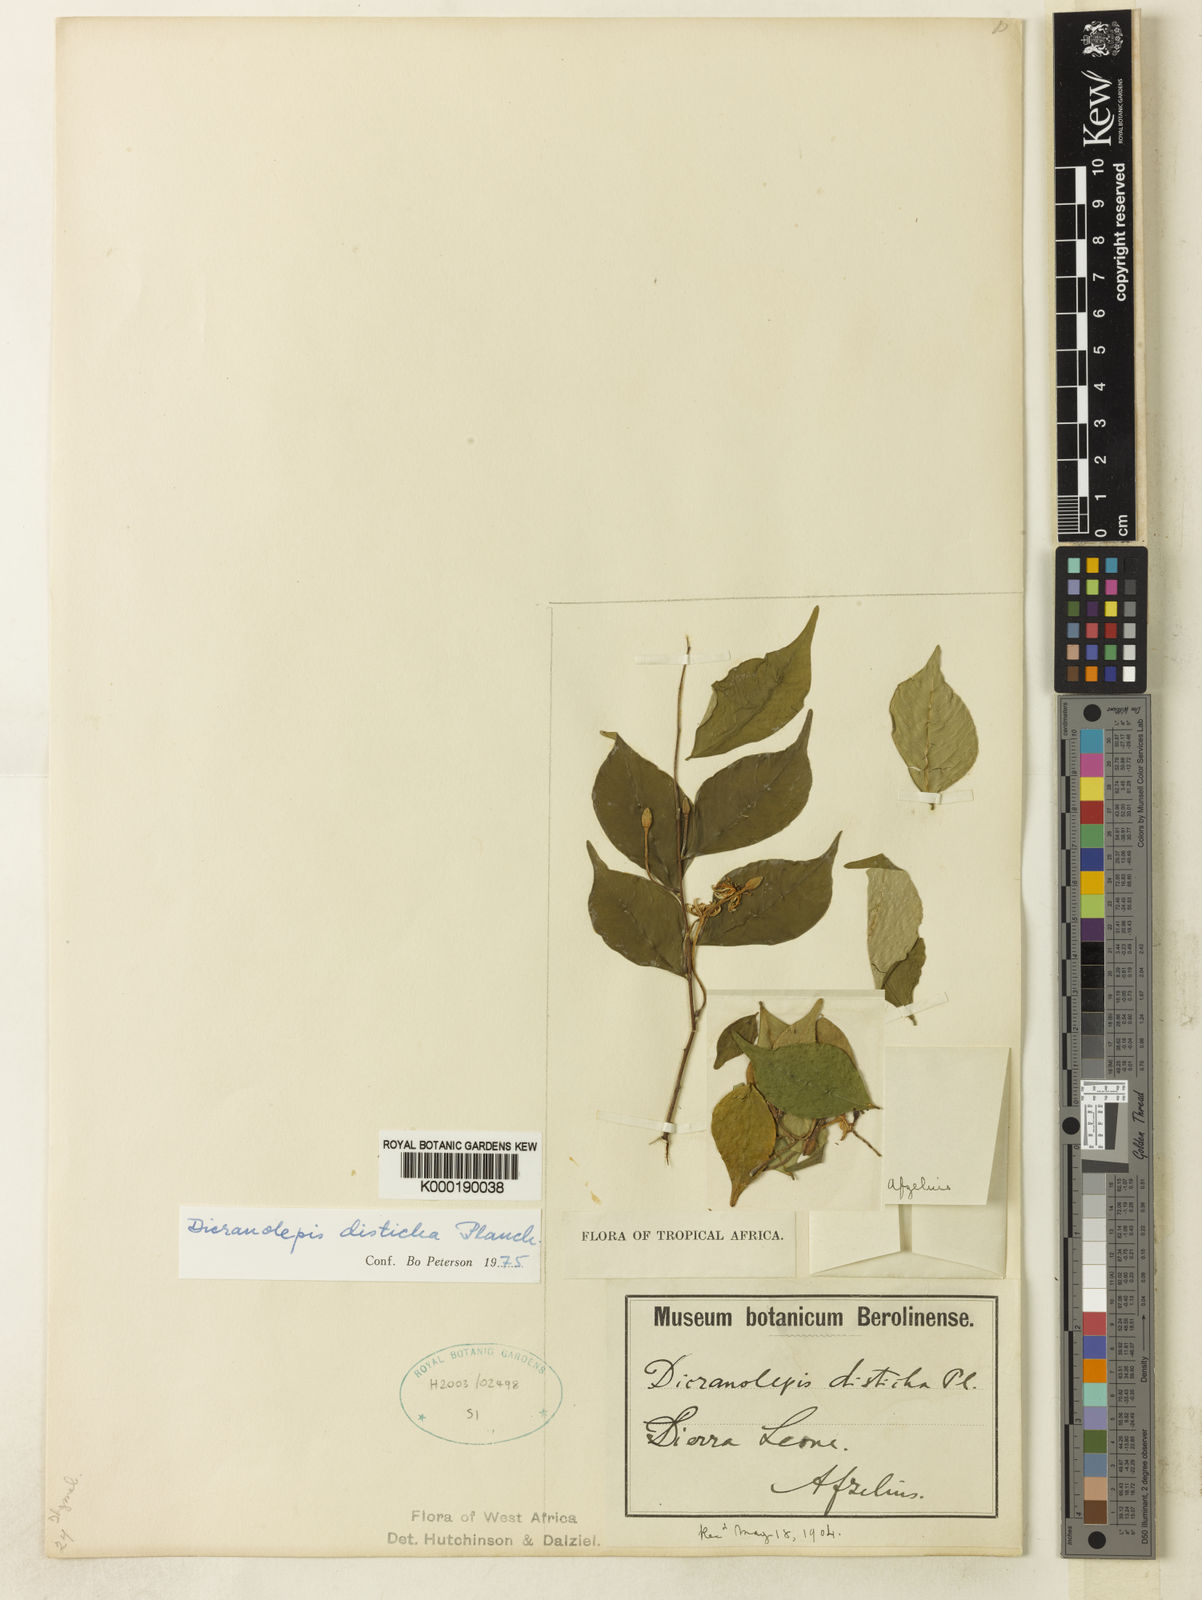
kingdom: Plantae
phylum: Tracheophyta
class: Magnoliopsida
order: Malvales
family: Thymelaeaceae
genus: Dicranolepis
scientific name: Dicranolepis disticha
